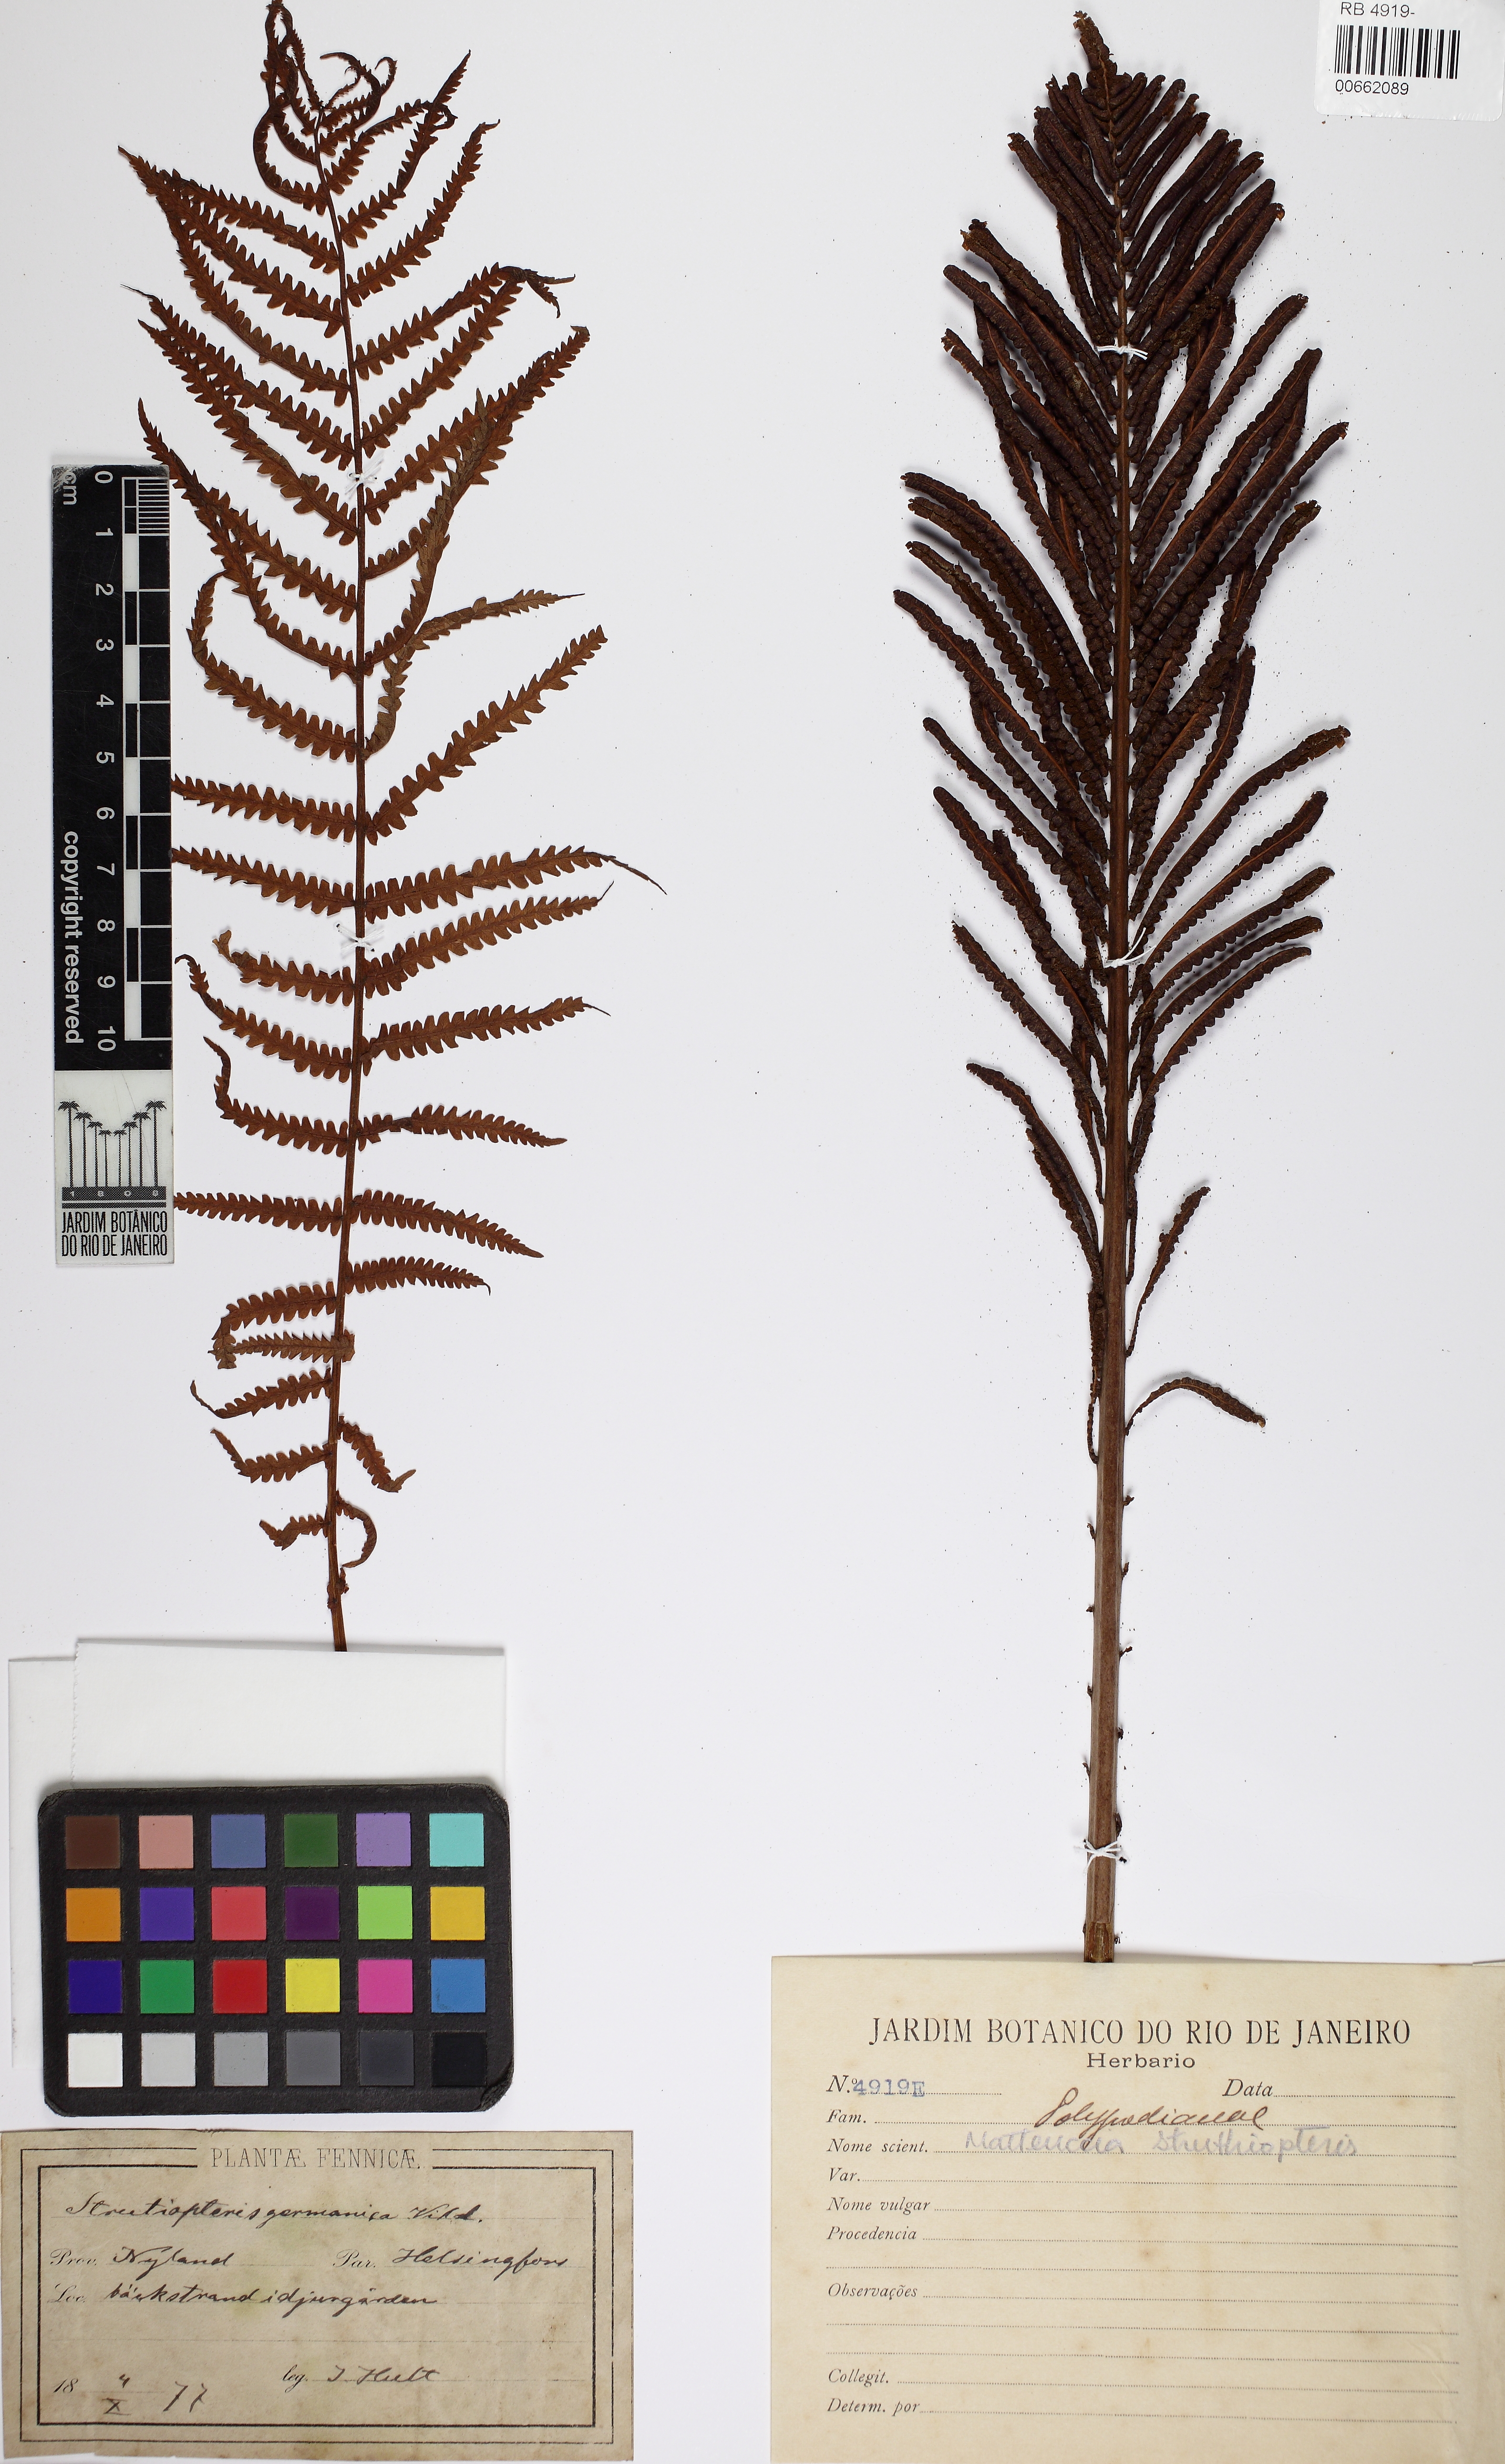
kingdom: Plantae
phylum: Tracheophyta
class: Polypodiopsida
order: Polypodiales
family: Onocleaceae
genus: Matteuccia
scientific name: Matteuccia struthiopteris
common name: Ostrich fern
